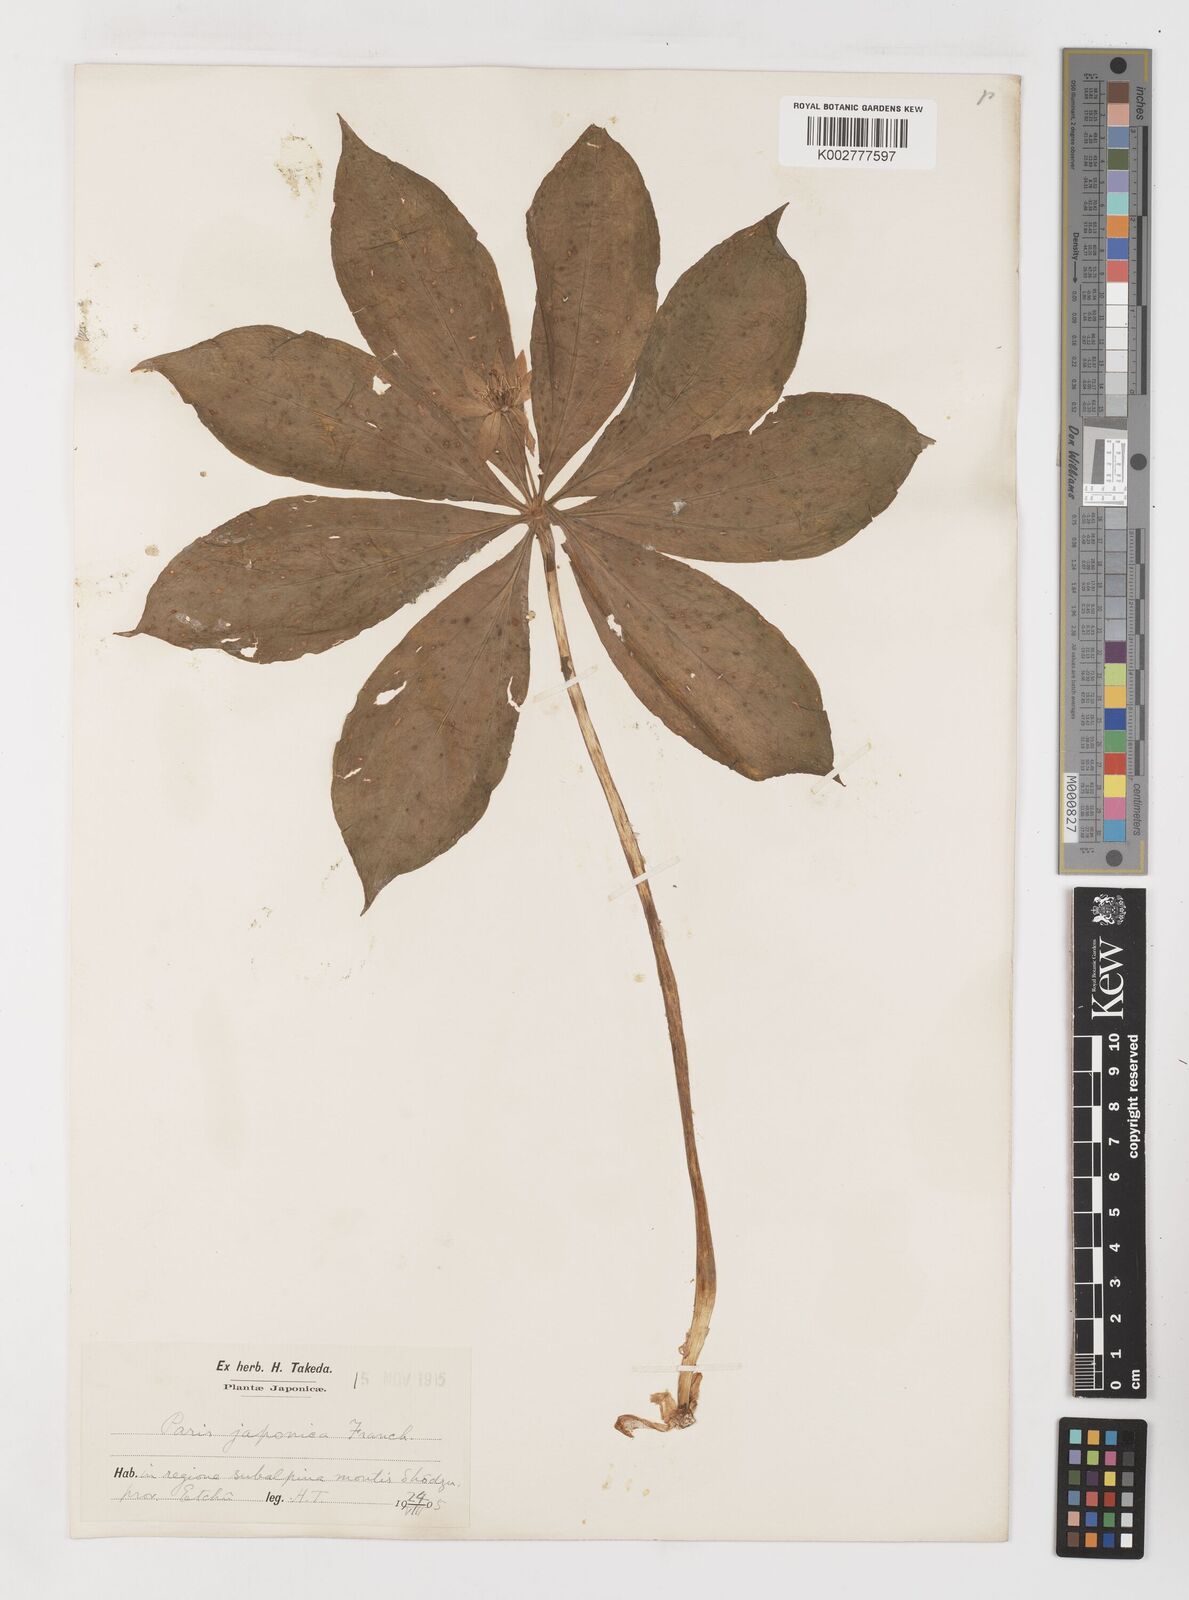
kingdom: Plantae
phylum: Tracheophyta
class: Liliopsida
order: Liliales
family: Melanthiaceae
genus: Paris
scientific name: Paris
